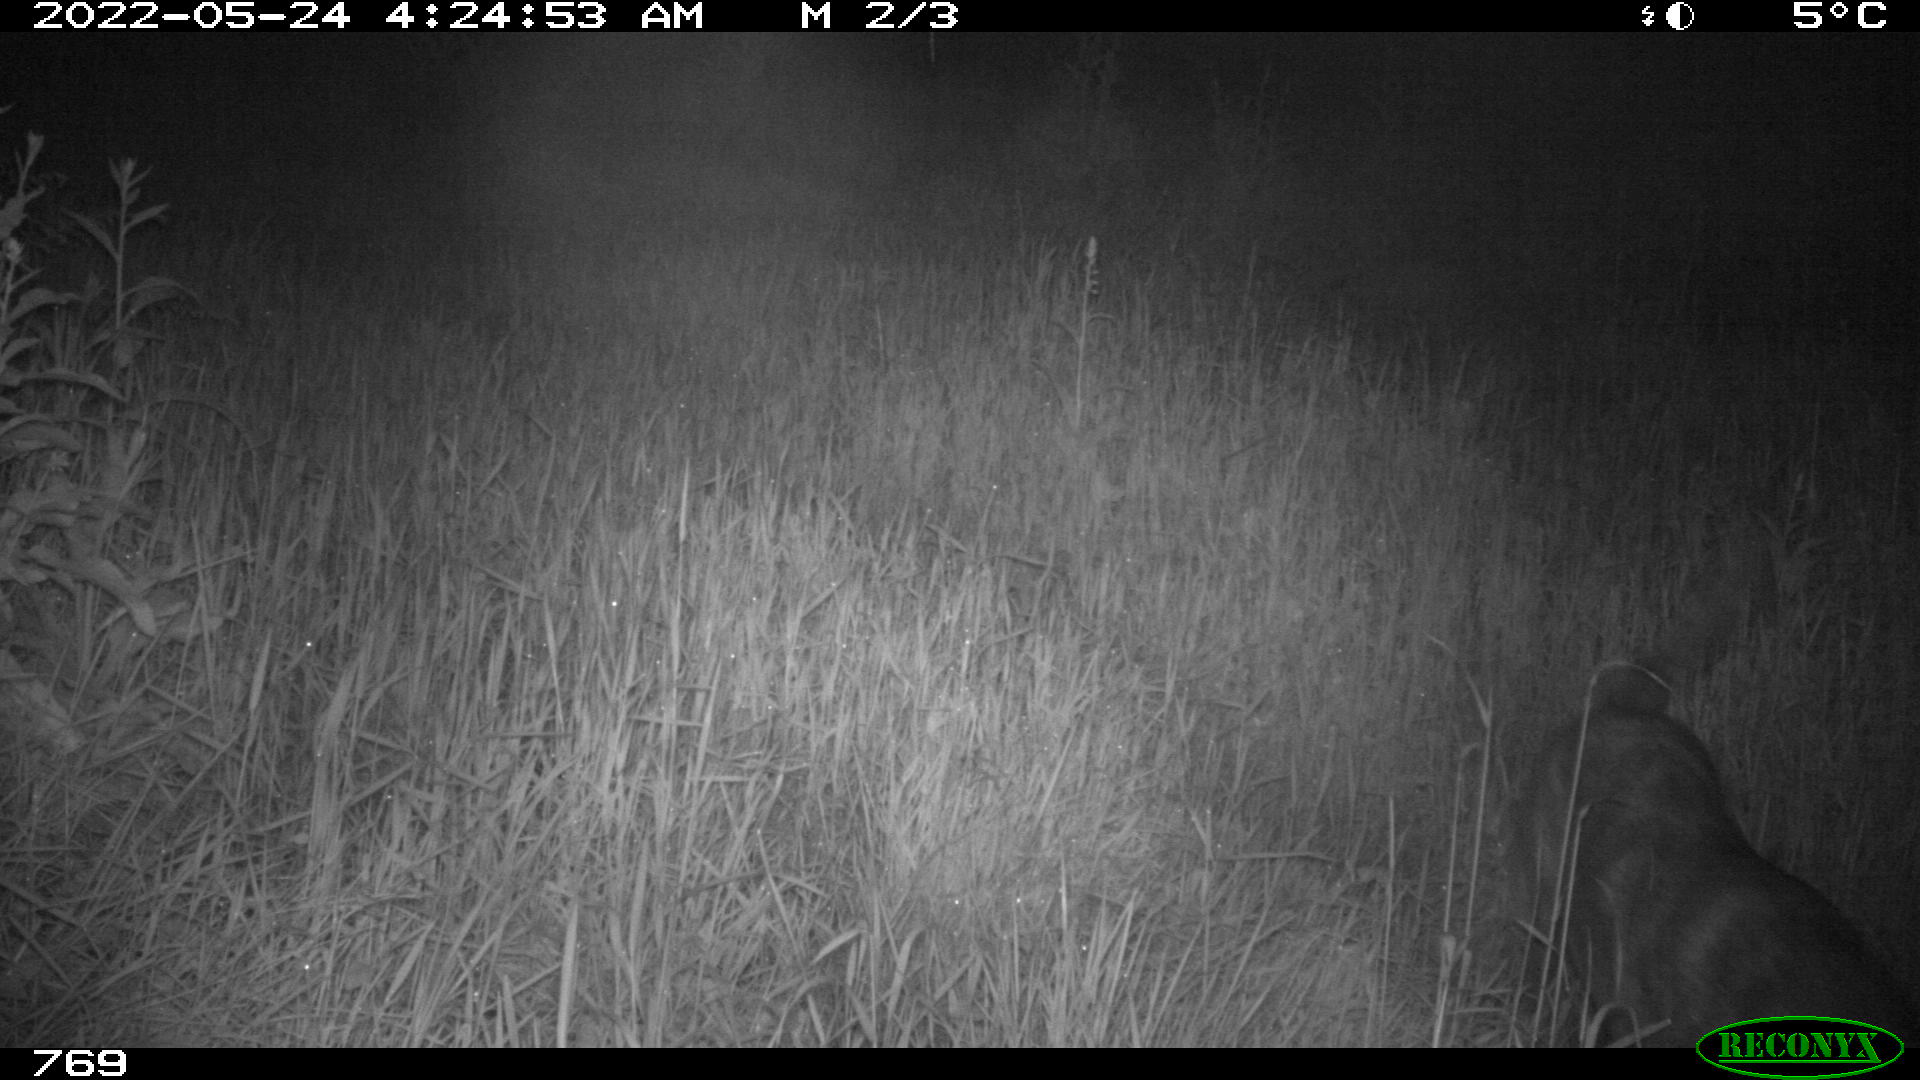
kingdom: Animalia
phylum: Chordata
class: Mammalia
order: Carnivora
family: Canidae
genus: Canis
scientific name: Canis lupus
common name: Gray wolf
